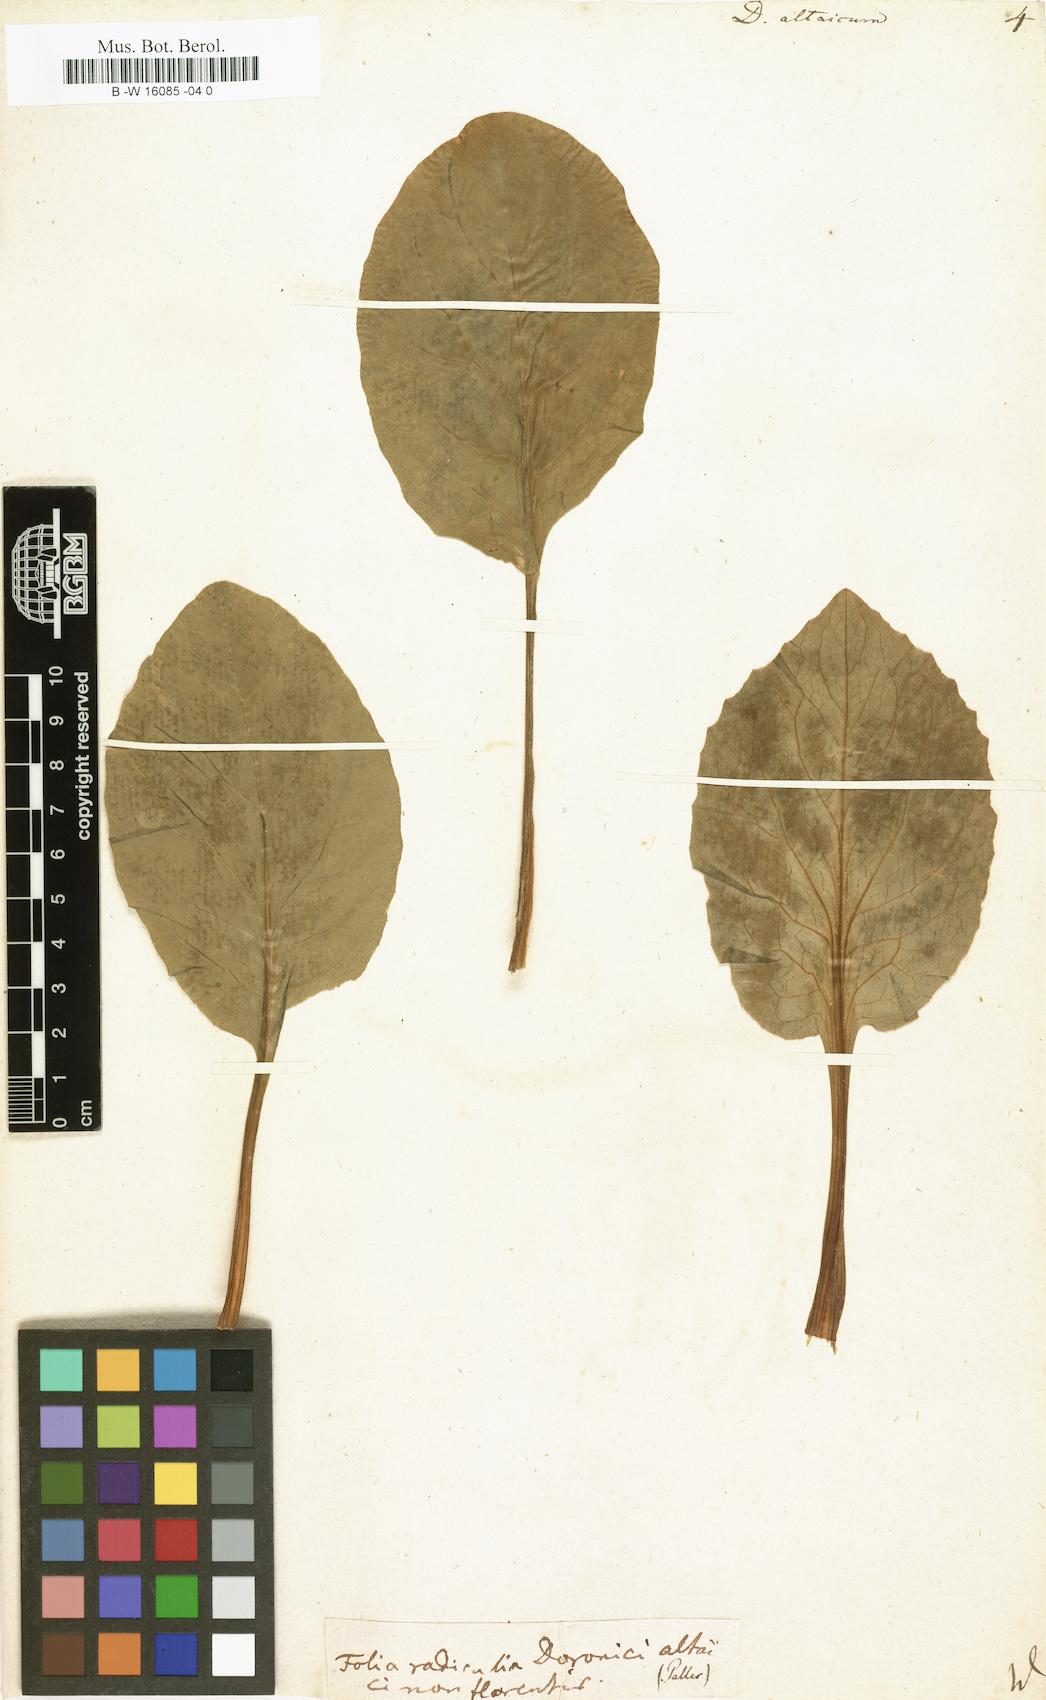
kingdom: Plantae
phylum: Tracheophyta
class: Magnoliopsida
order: Asterales
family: Asteraceae
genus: Doronicum
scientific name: Doronicum altaicum
